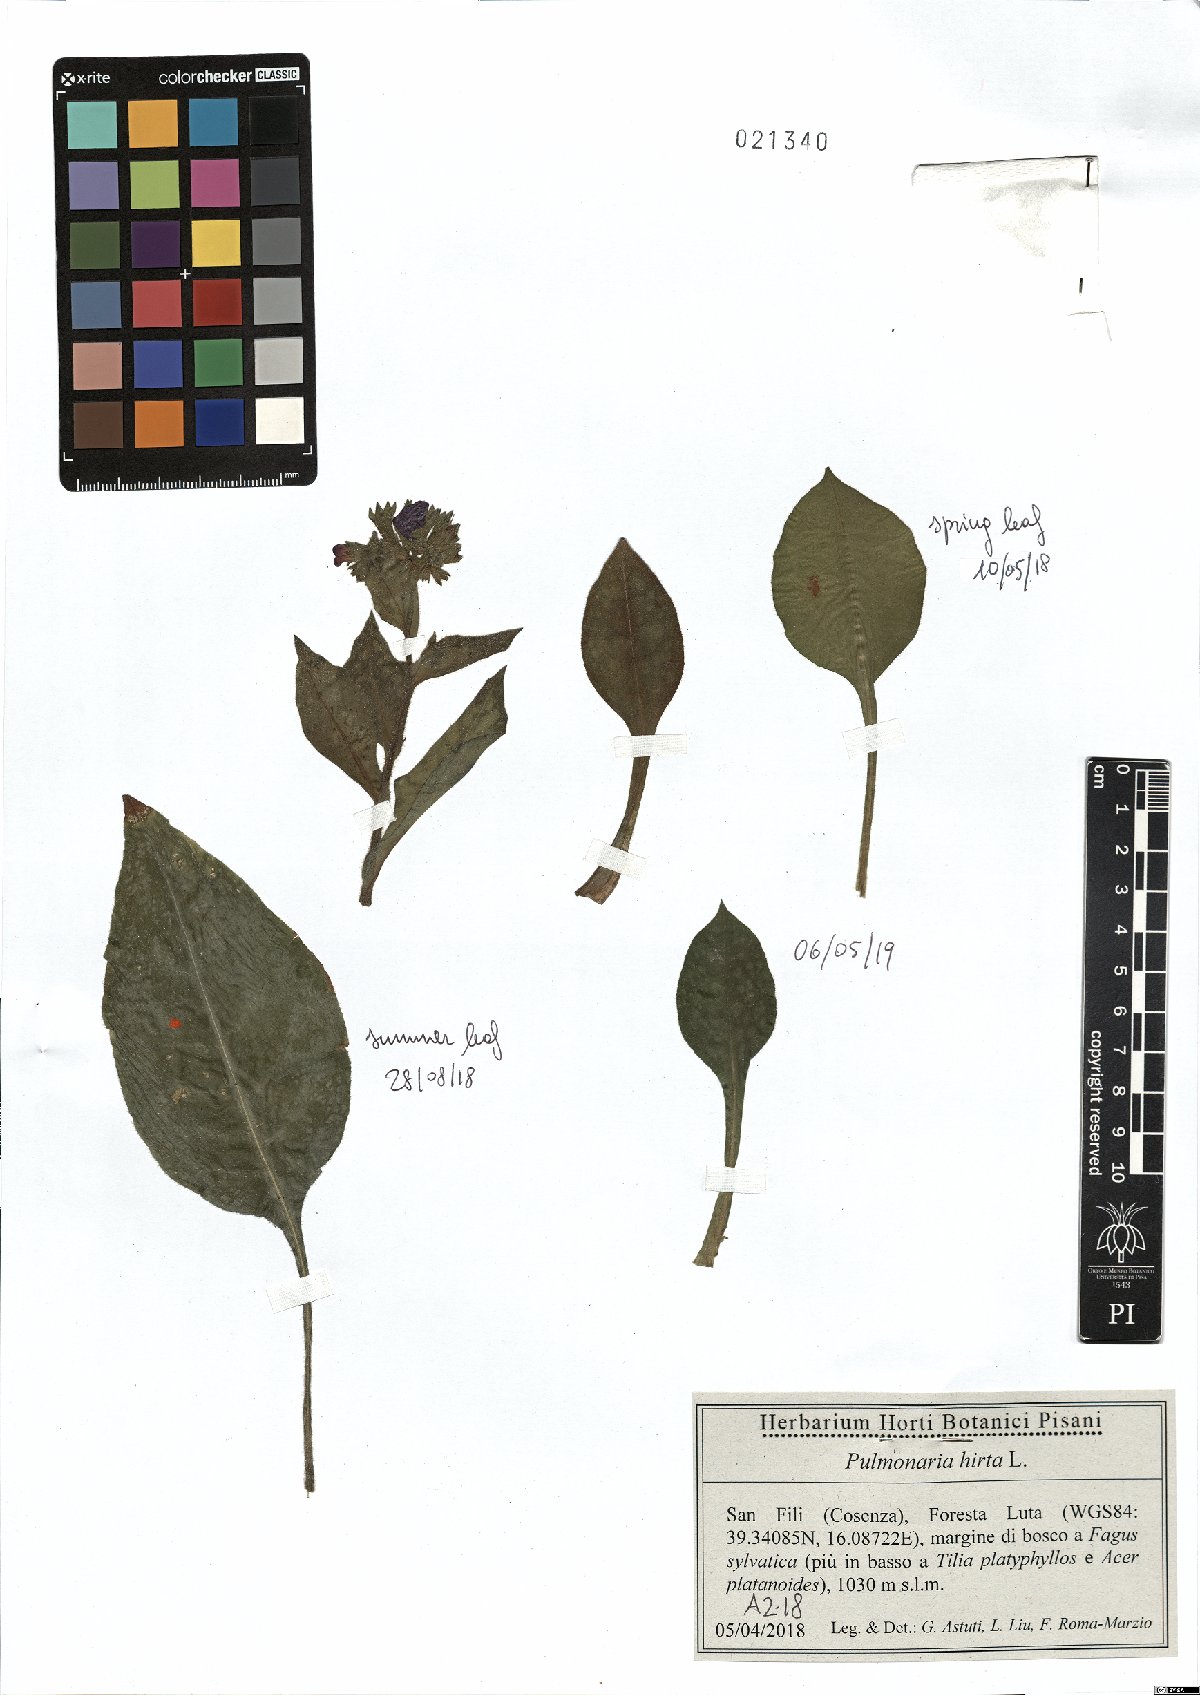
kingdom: Plantae
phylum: Tracheophyta
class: Magnoliopsida
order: Boraginales
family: Boraginaceae
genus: Pulmonaria
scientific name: Pulmonaria hirta
